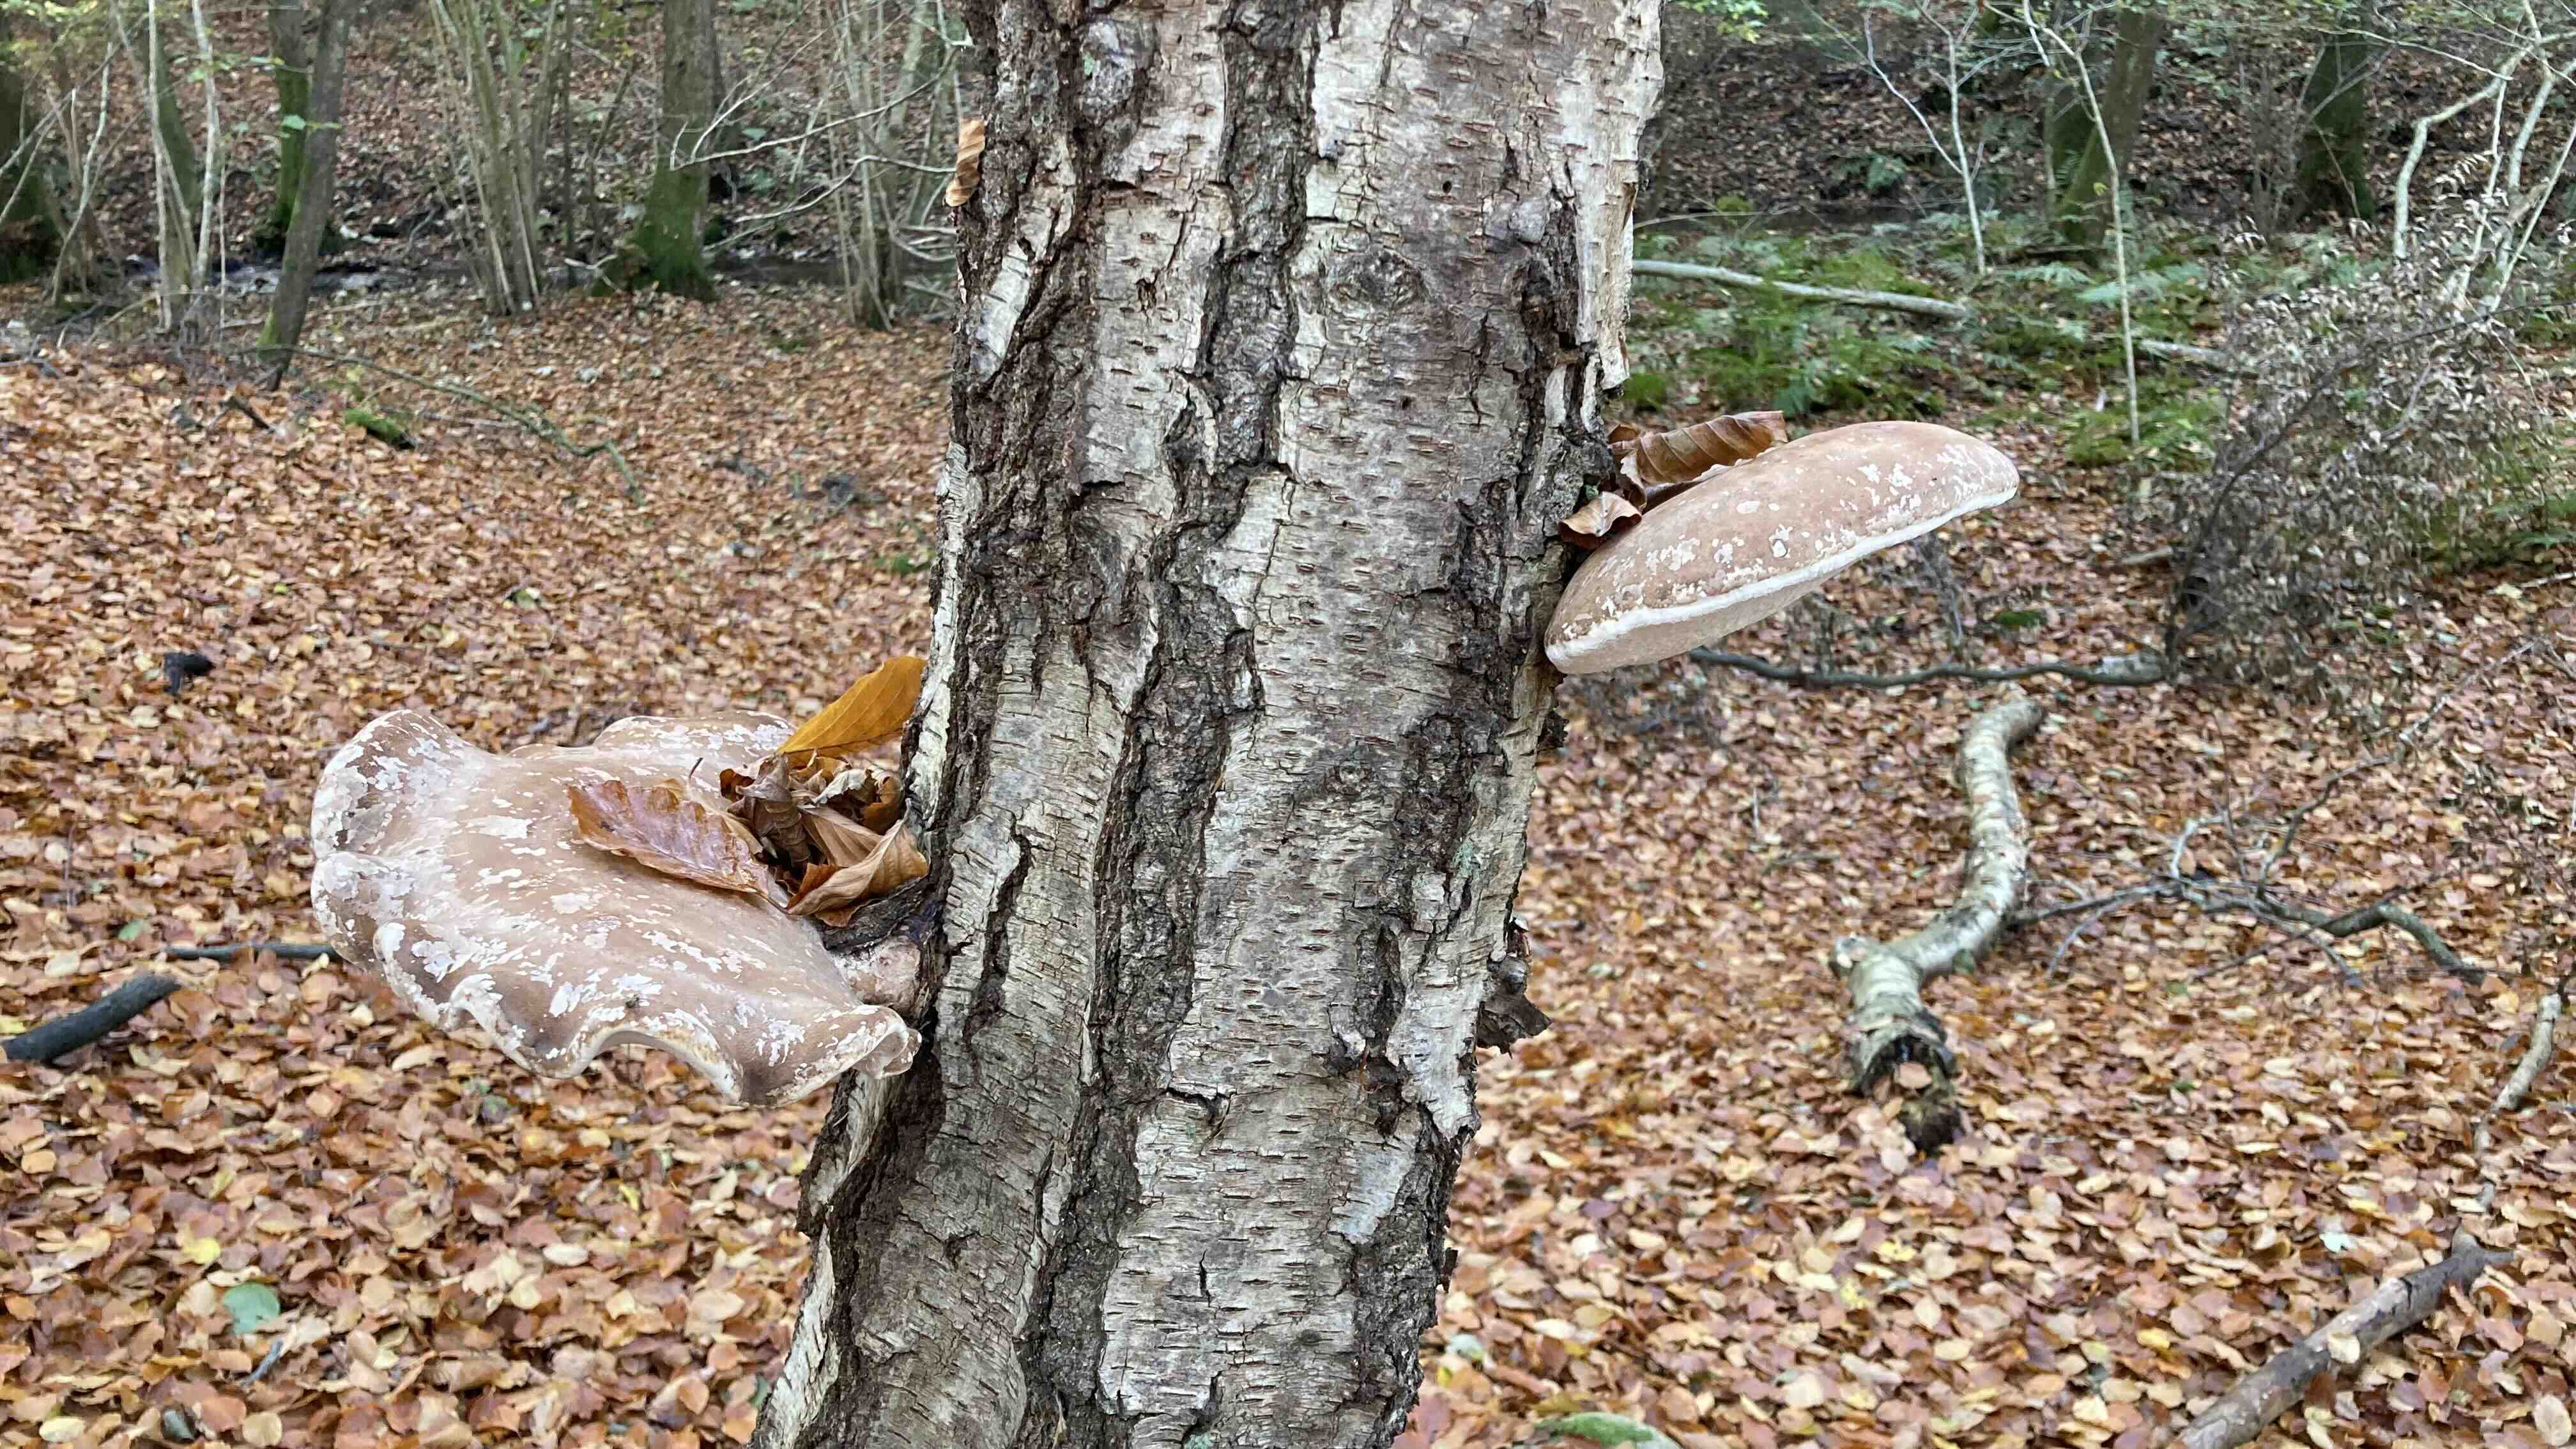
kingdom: Fungi
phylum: Basidiomycota
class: Agaricomycetes
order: Polyporales
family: Fomitopsidaceae
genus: Fomitopsis
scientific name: Fomitopsis betulina
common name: birkeporesvamp
